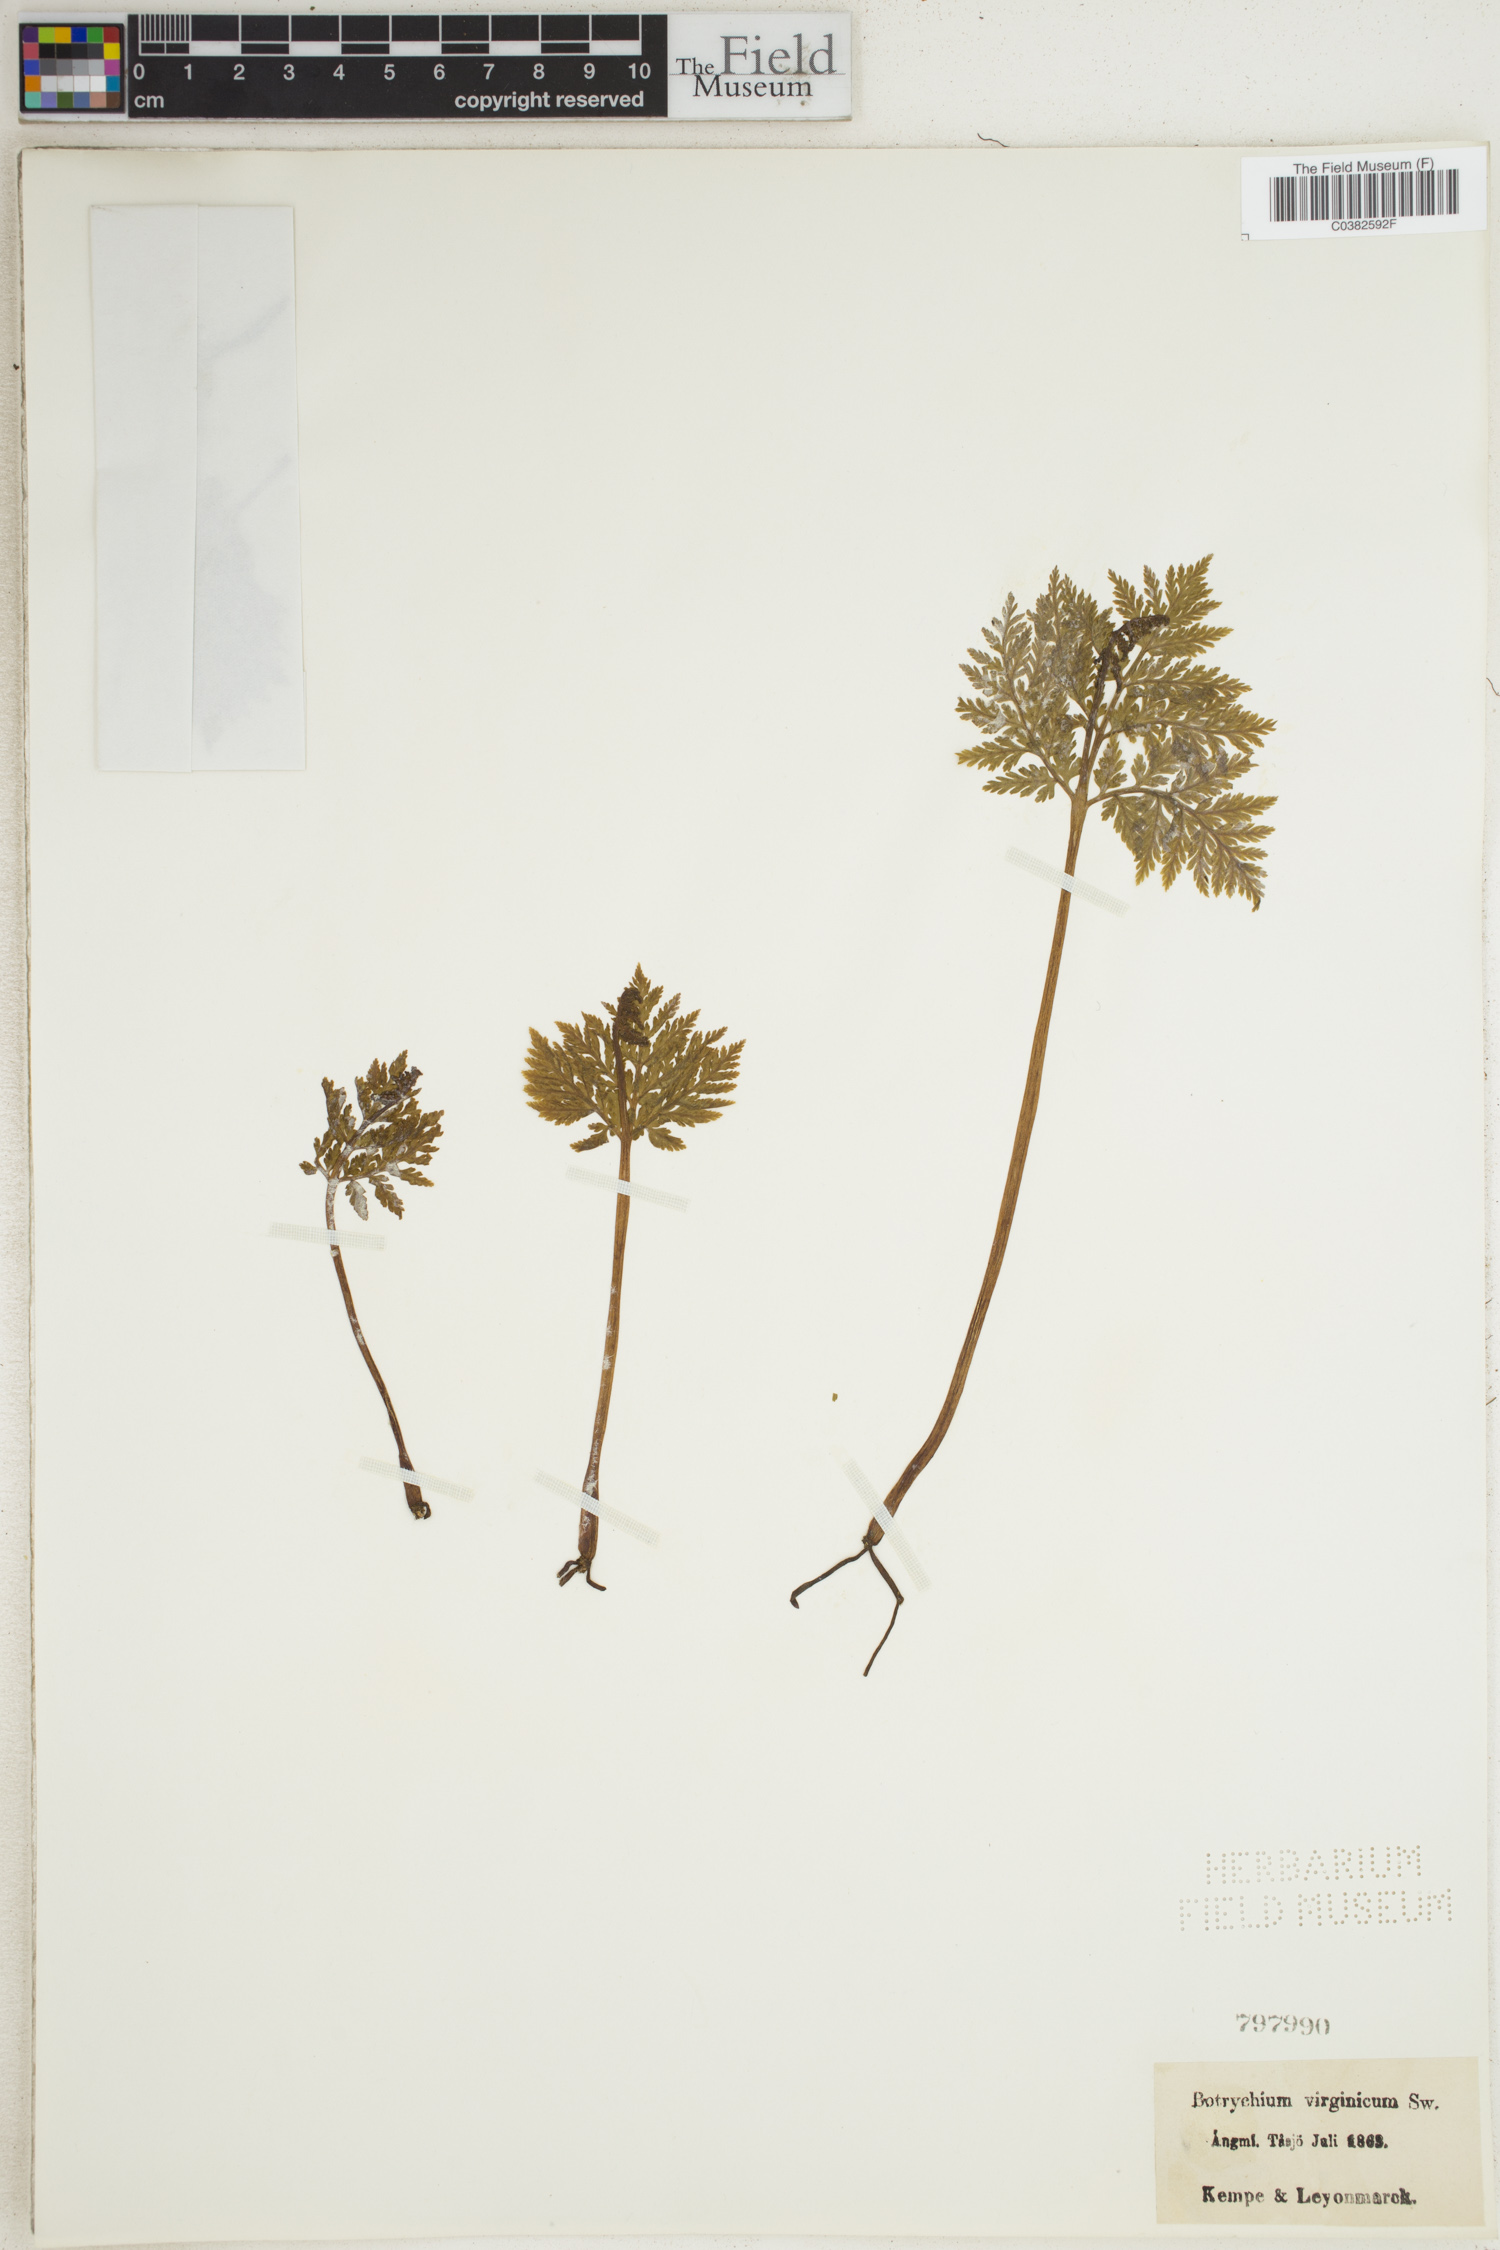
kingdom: Plantae
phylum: Tracheophyta
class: Polypodiopsida
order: Ophioglossales
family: Ophioglossaceae
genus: Botrypus
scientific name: Botrypus virginianus
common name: Common grapefern
